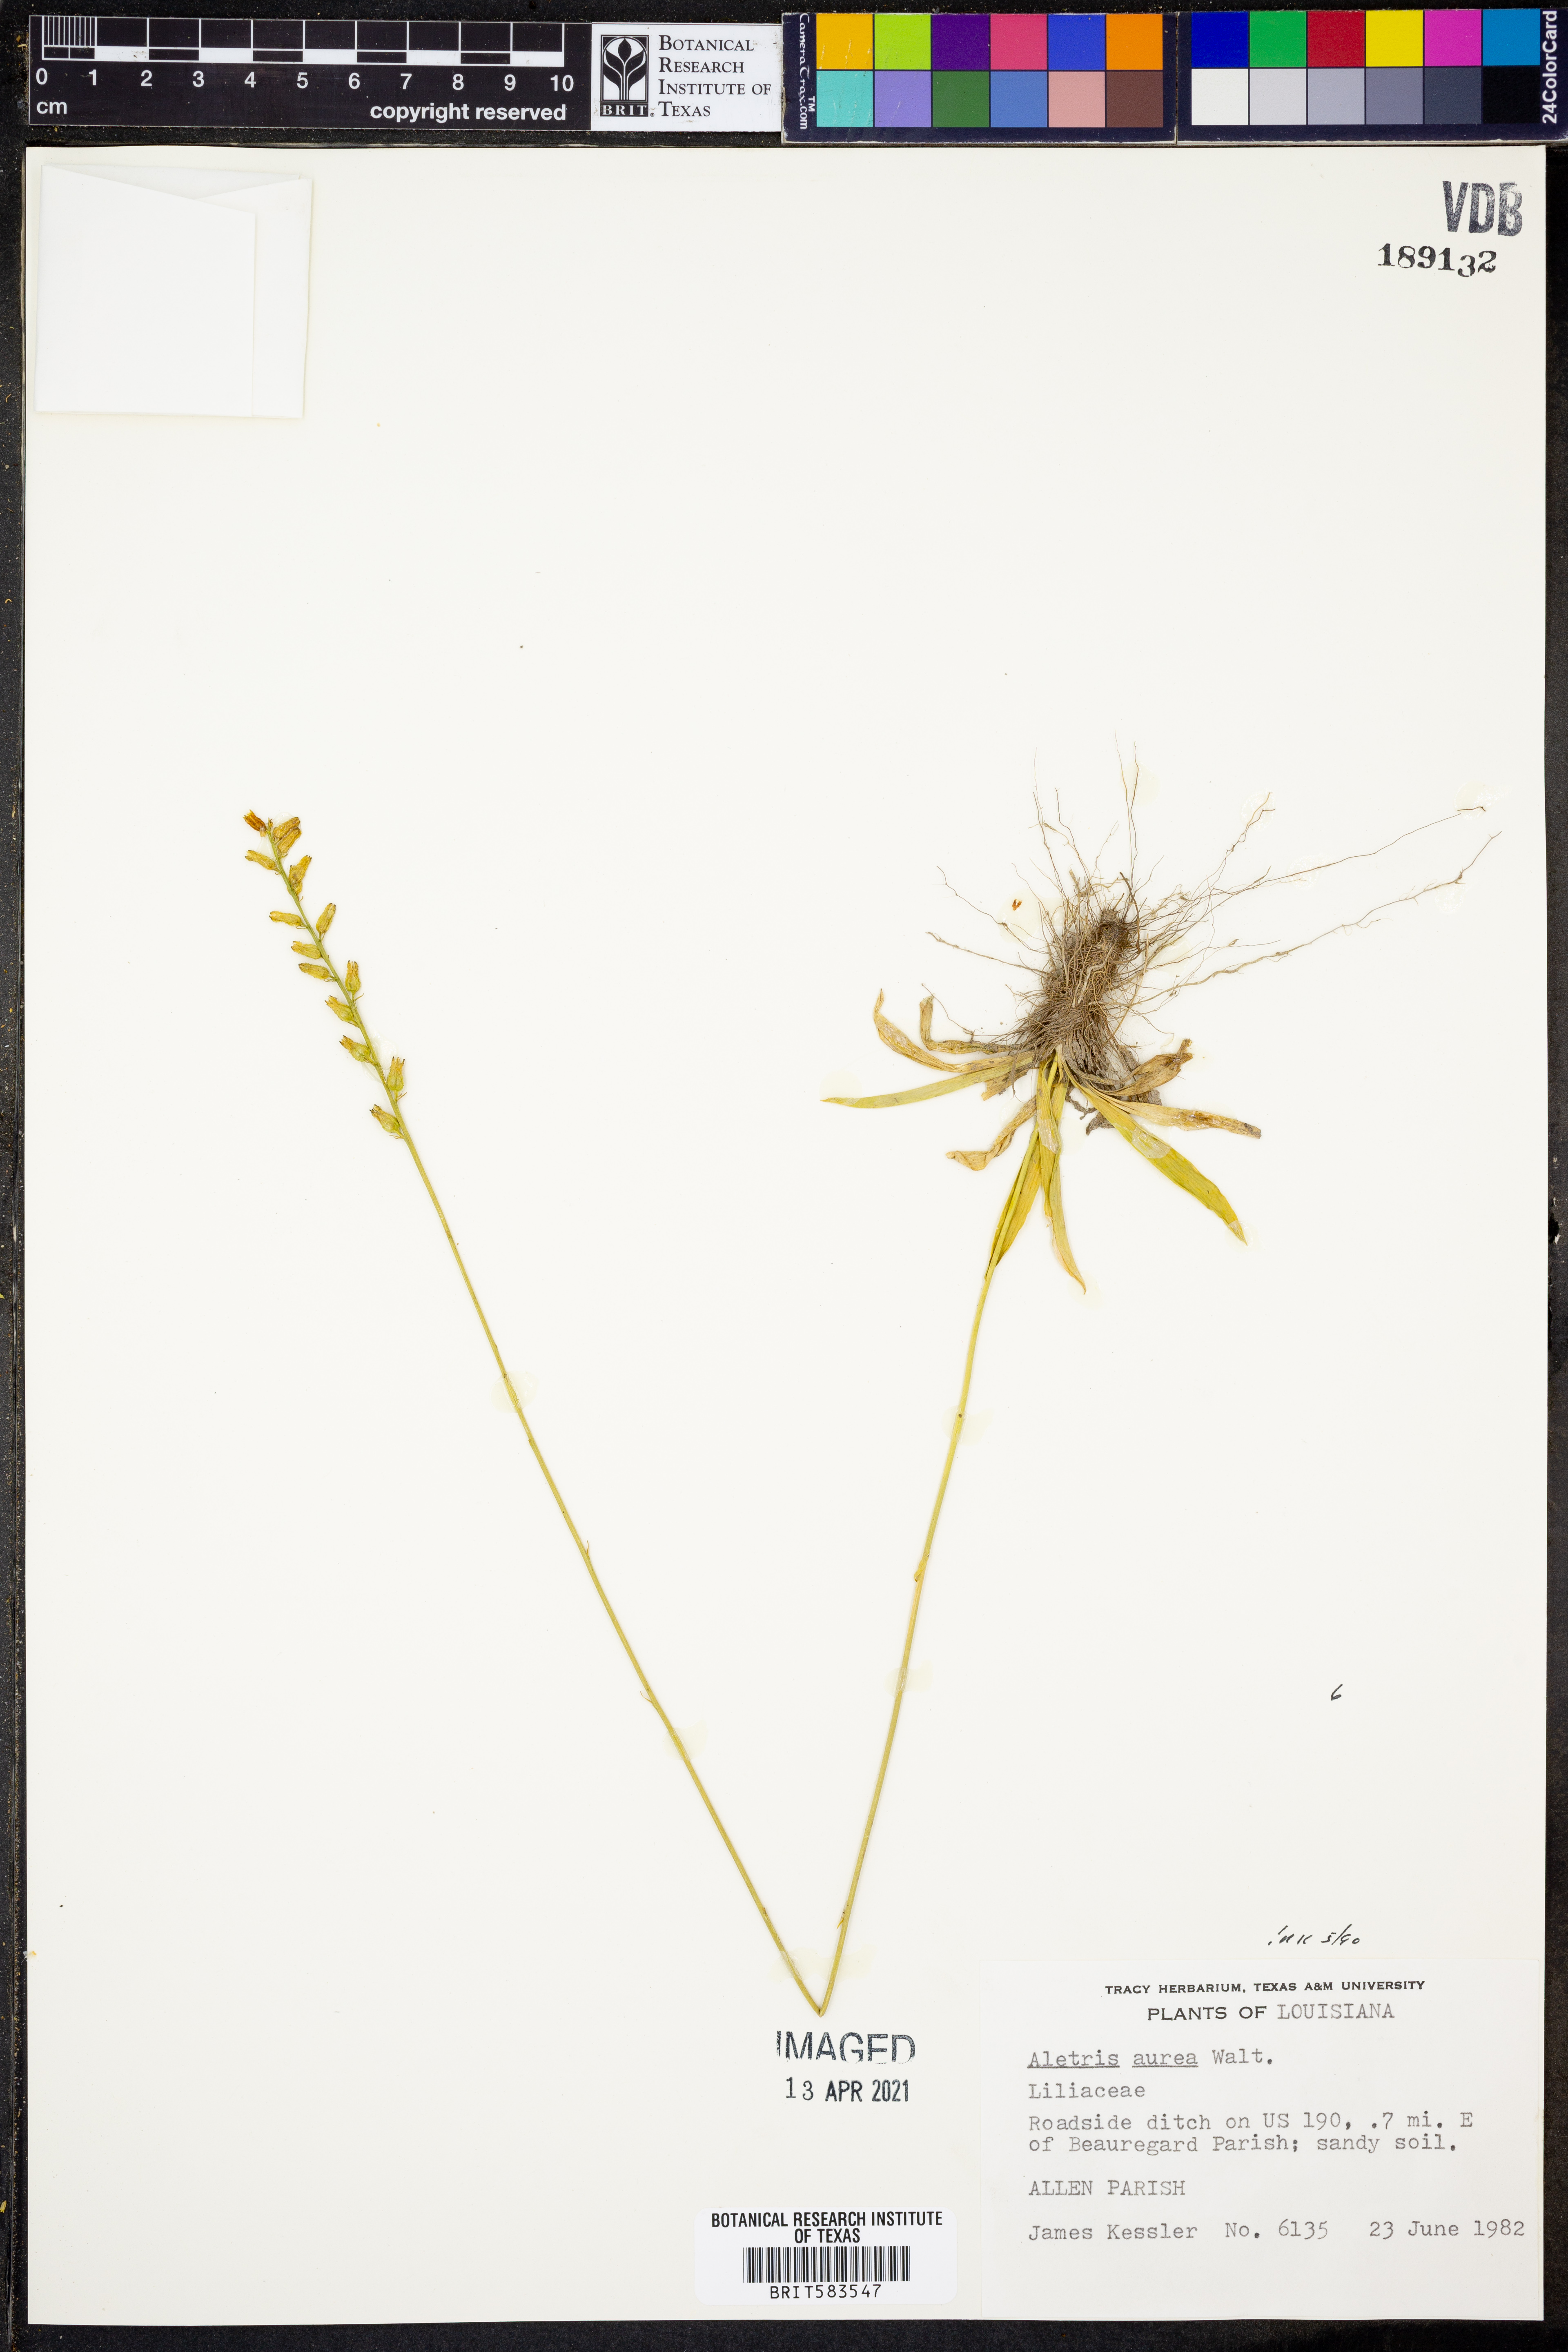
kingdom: Plantae
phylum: Tracheophyta
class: Liliopsida
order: Dioscoreales
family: Nartheciaceae
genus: Aletris
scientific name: Aletris aurea
